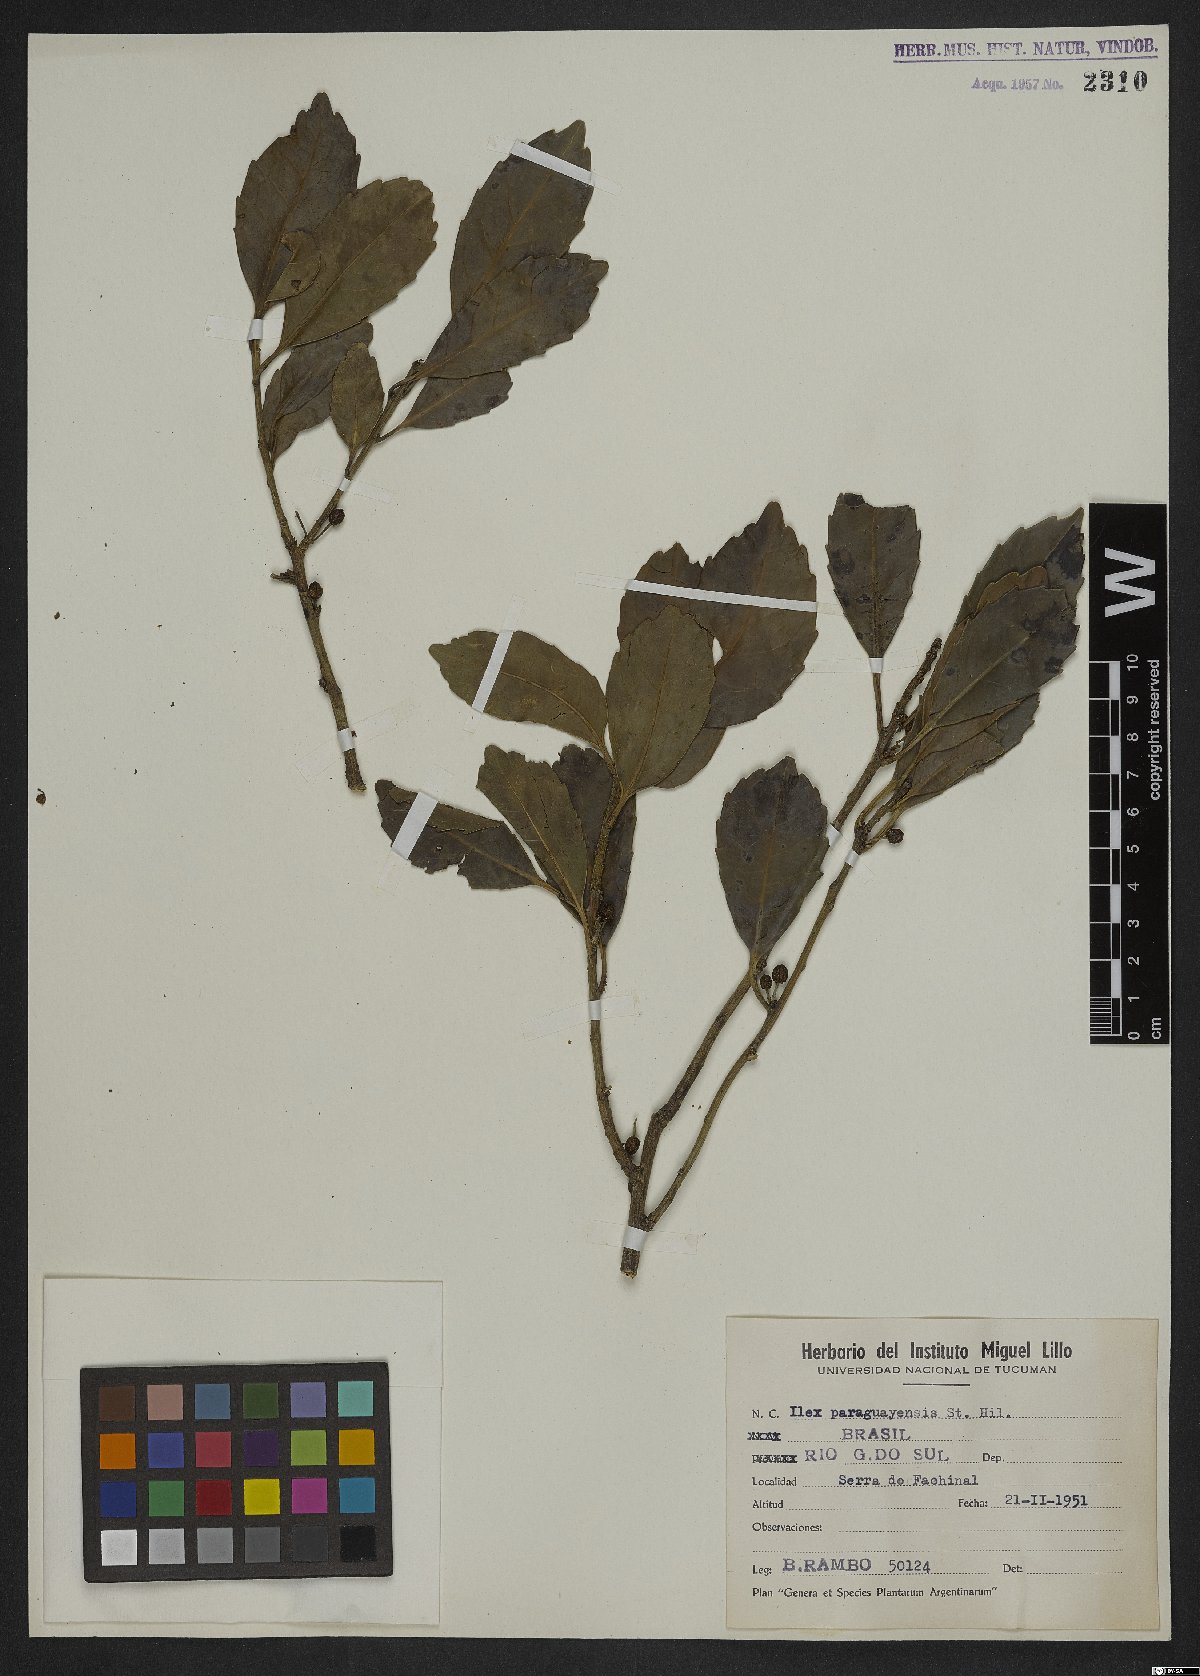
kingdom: Plantae
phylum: Tracheophyta
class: Magnoliopsida
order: Aquifoliales
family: Aquifoliaceae
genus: Ilex
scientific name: Ilex paraguariensis
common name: Paraguay tea
